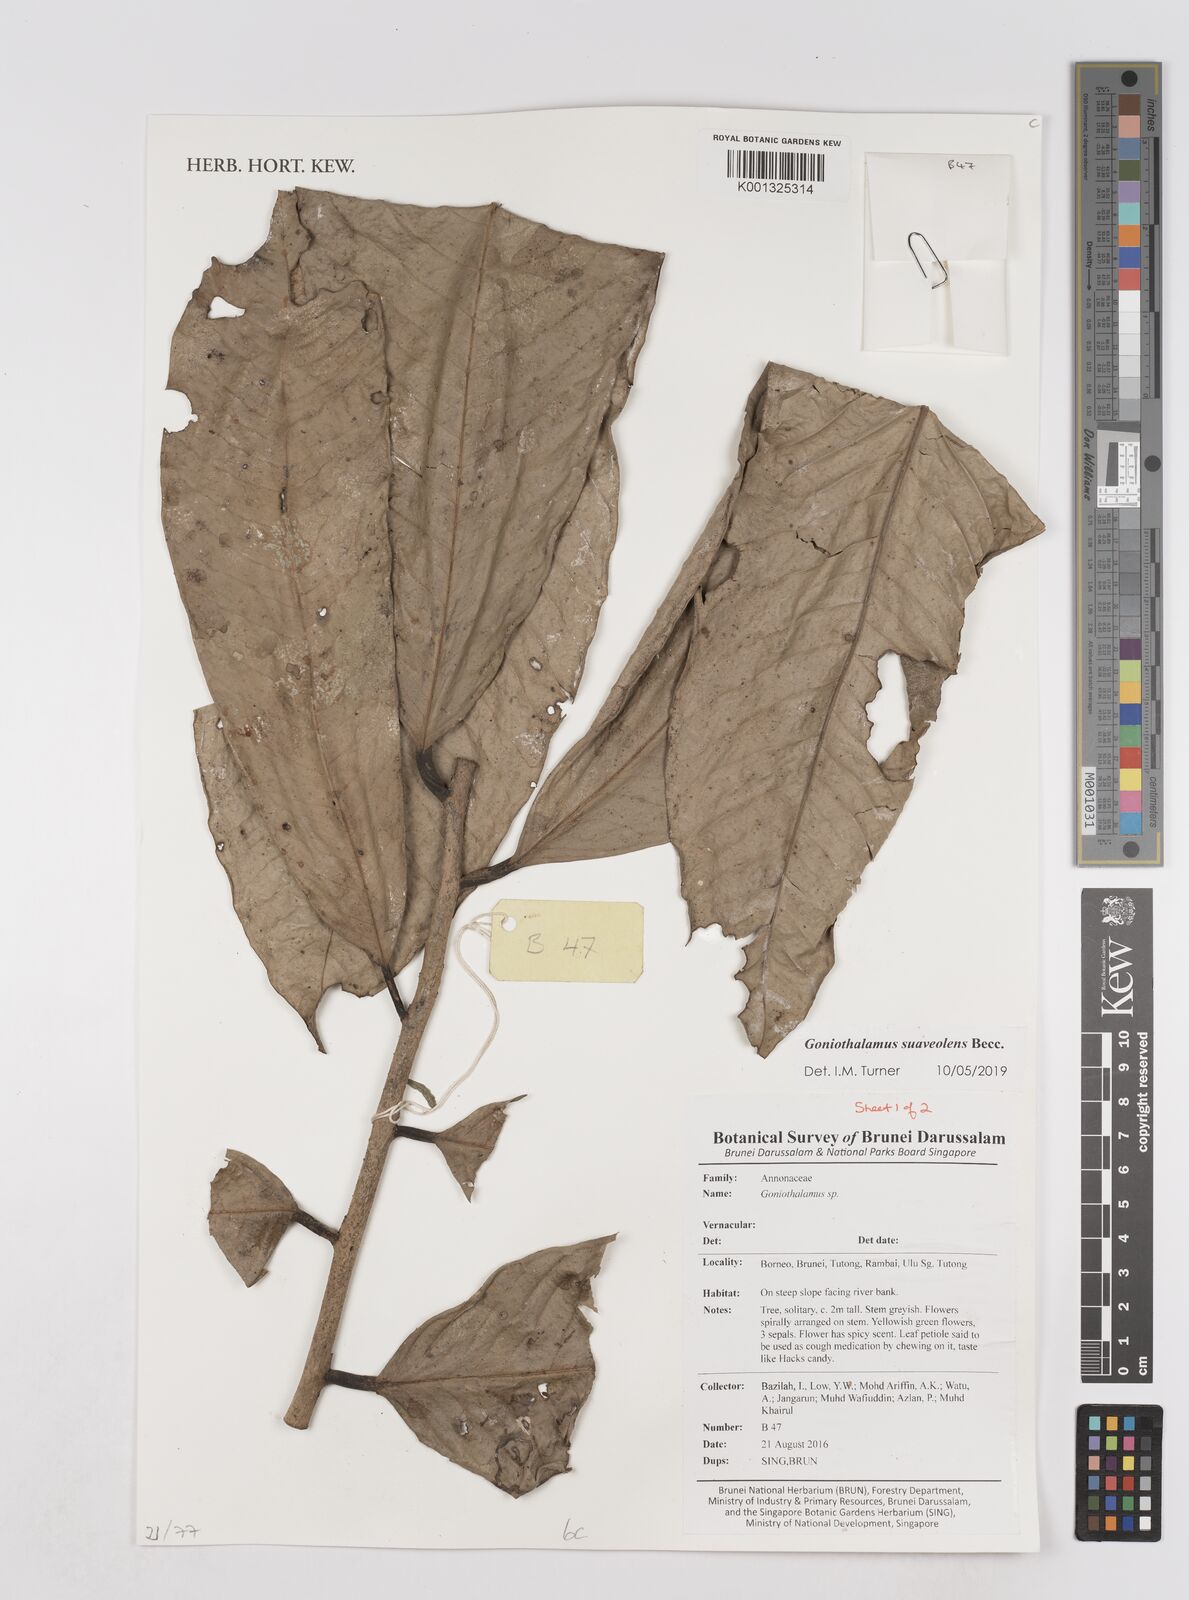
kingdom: Plantae
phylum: Tracheophyta
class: Magnoliopsida
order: Magnoliales
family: Annonaceae
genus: Goniothalamus
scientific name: Goniothalamus macrophyllus
